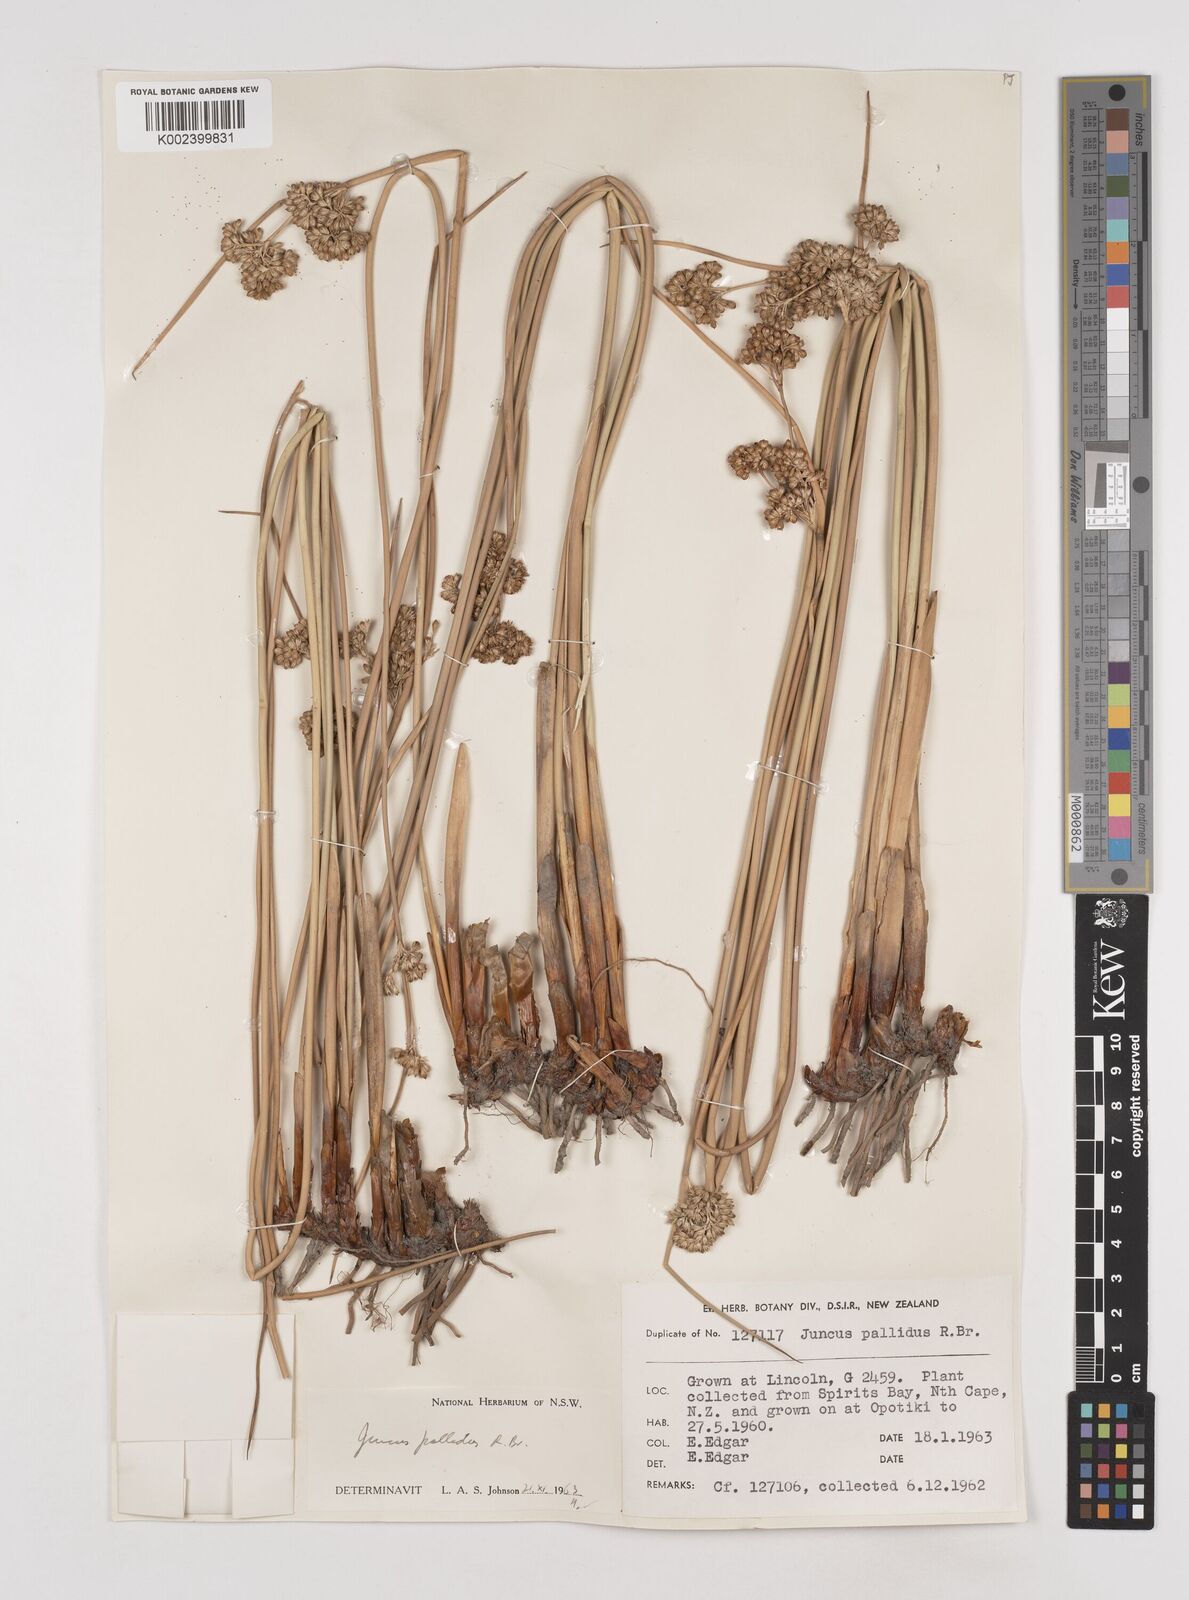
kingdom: Plantae
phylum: Tracheophyta
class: Liliopsida
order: Poales
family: Juncaceae
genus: Juncus
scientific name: Juncus pallidus
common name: Great soft-rush
